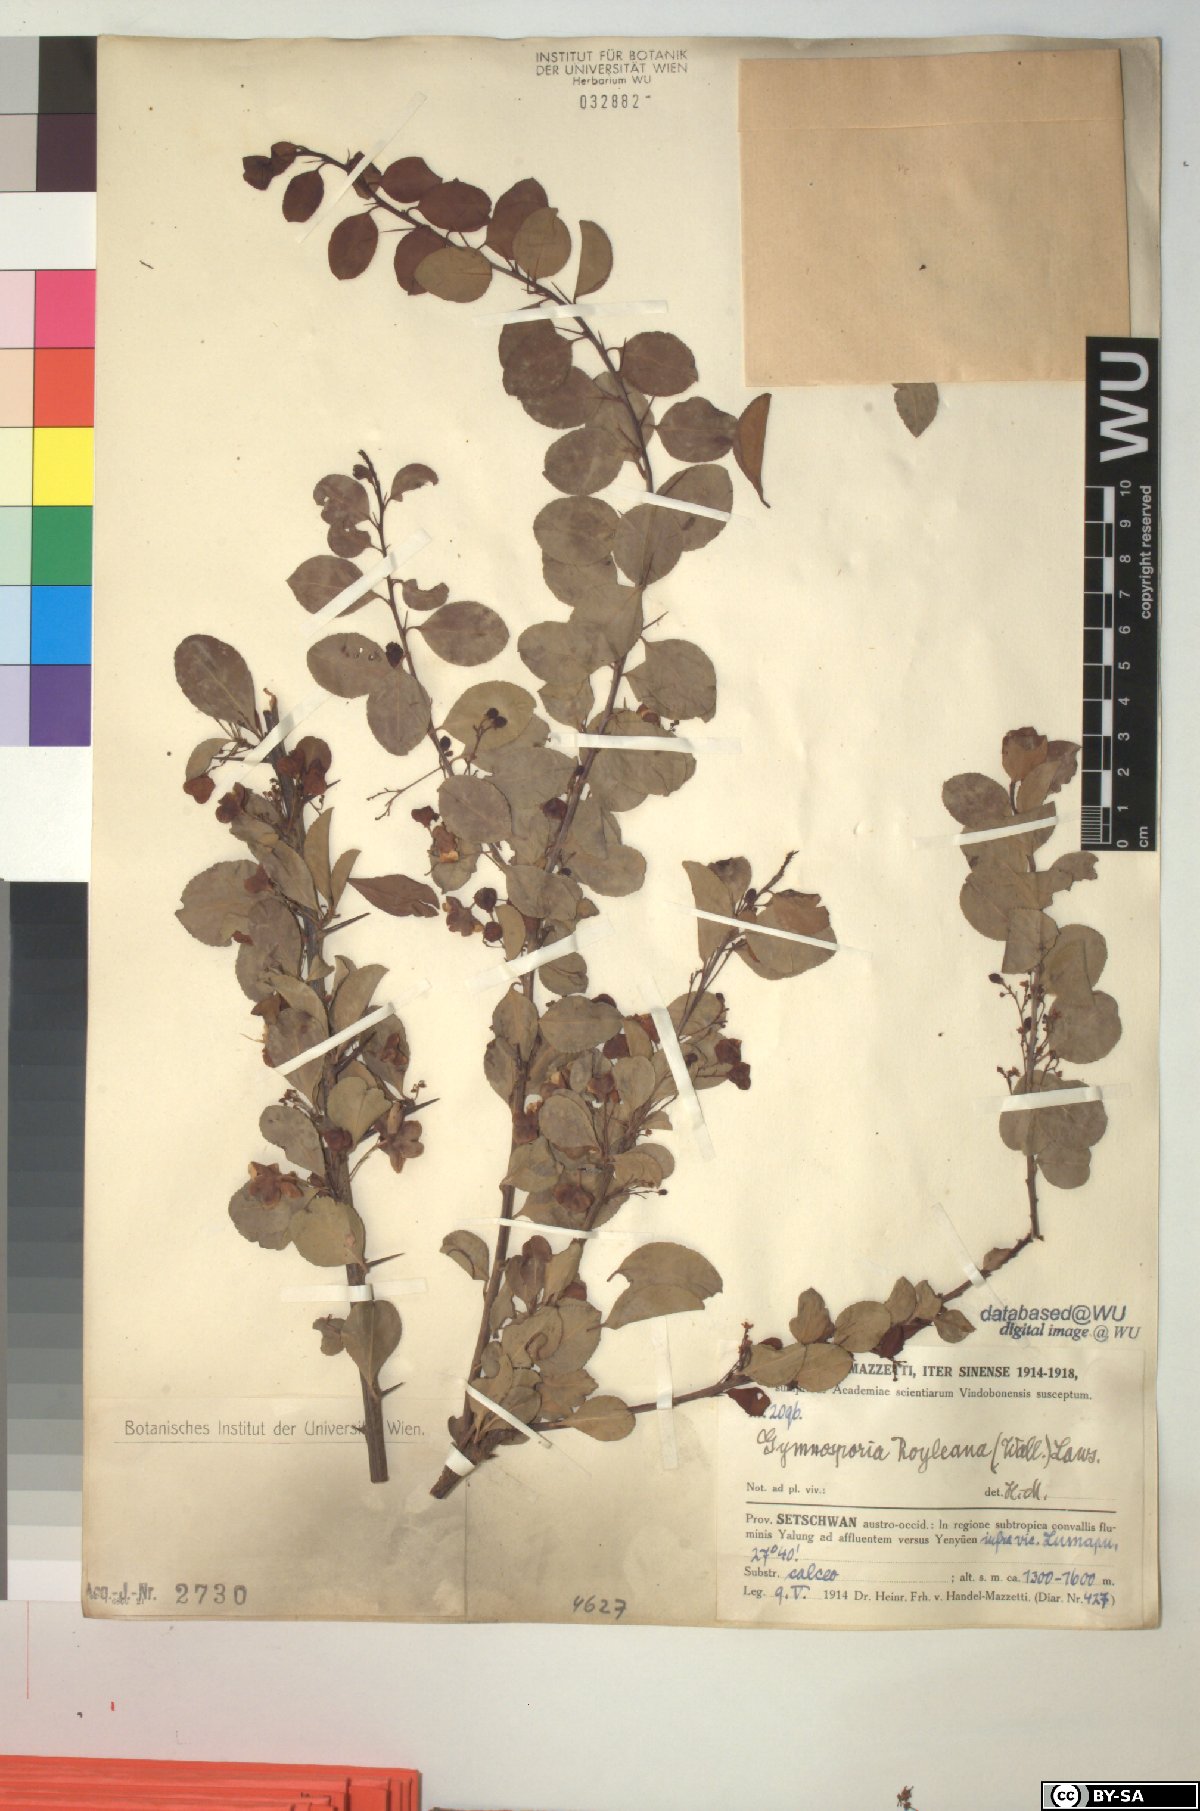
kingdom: Plantae
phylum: Tracheophyta
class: Magnoliopsida
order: Celastrales
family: Celastraceae
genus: Gymnosporia
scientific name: Gymnosporia royleana
